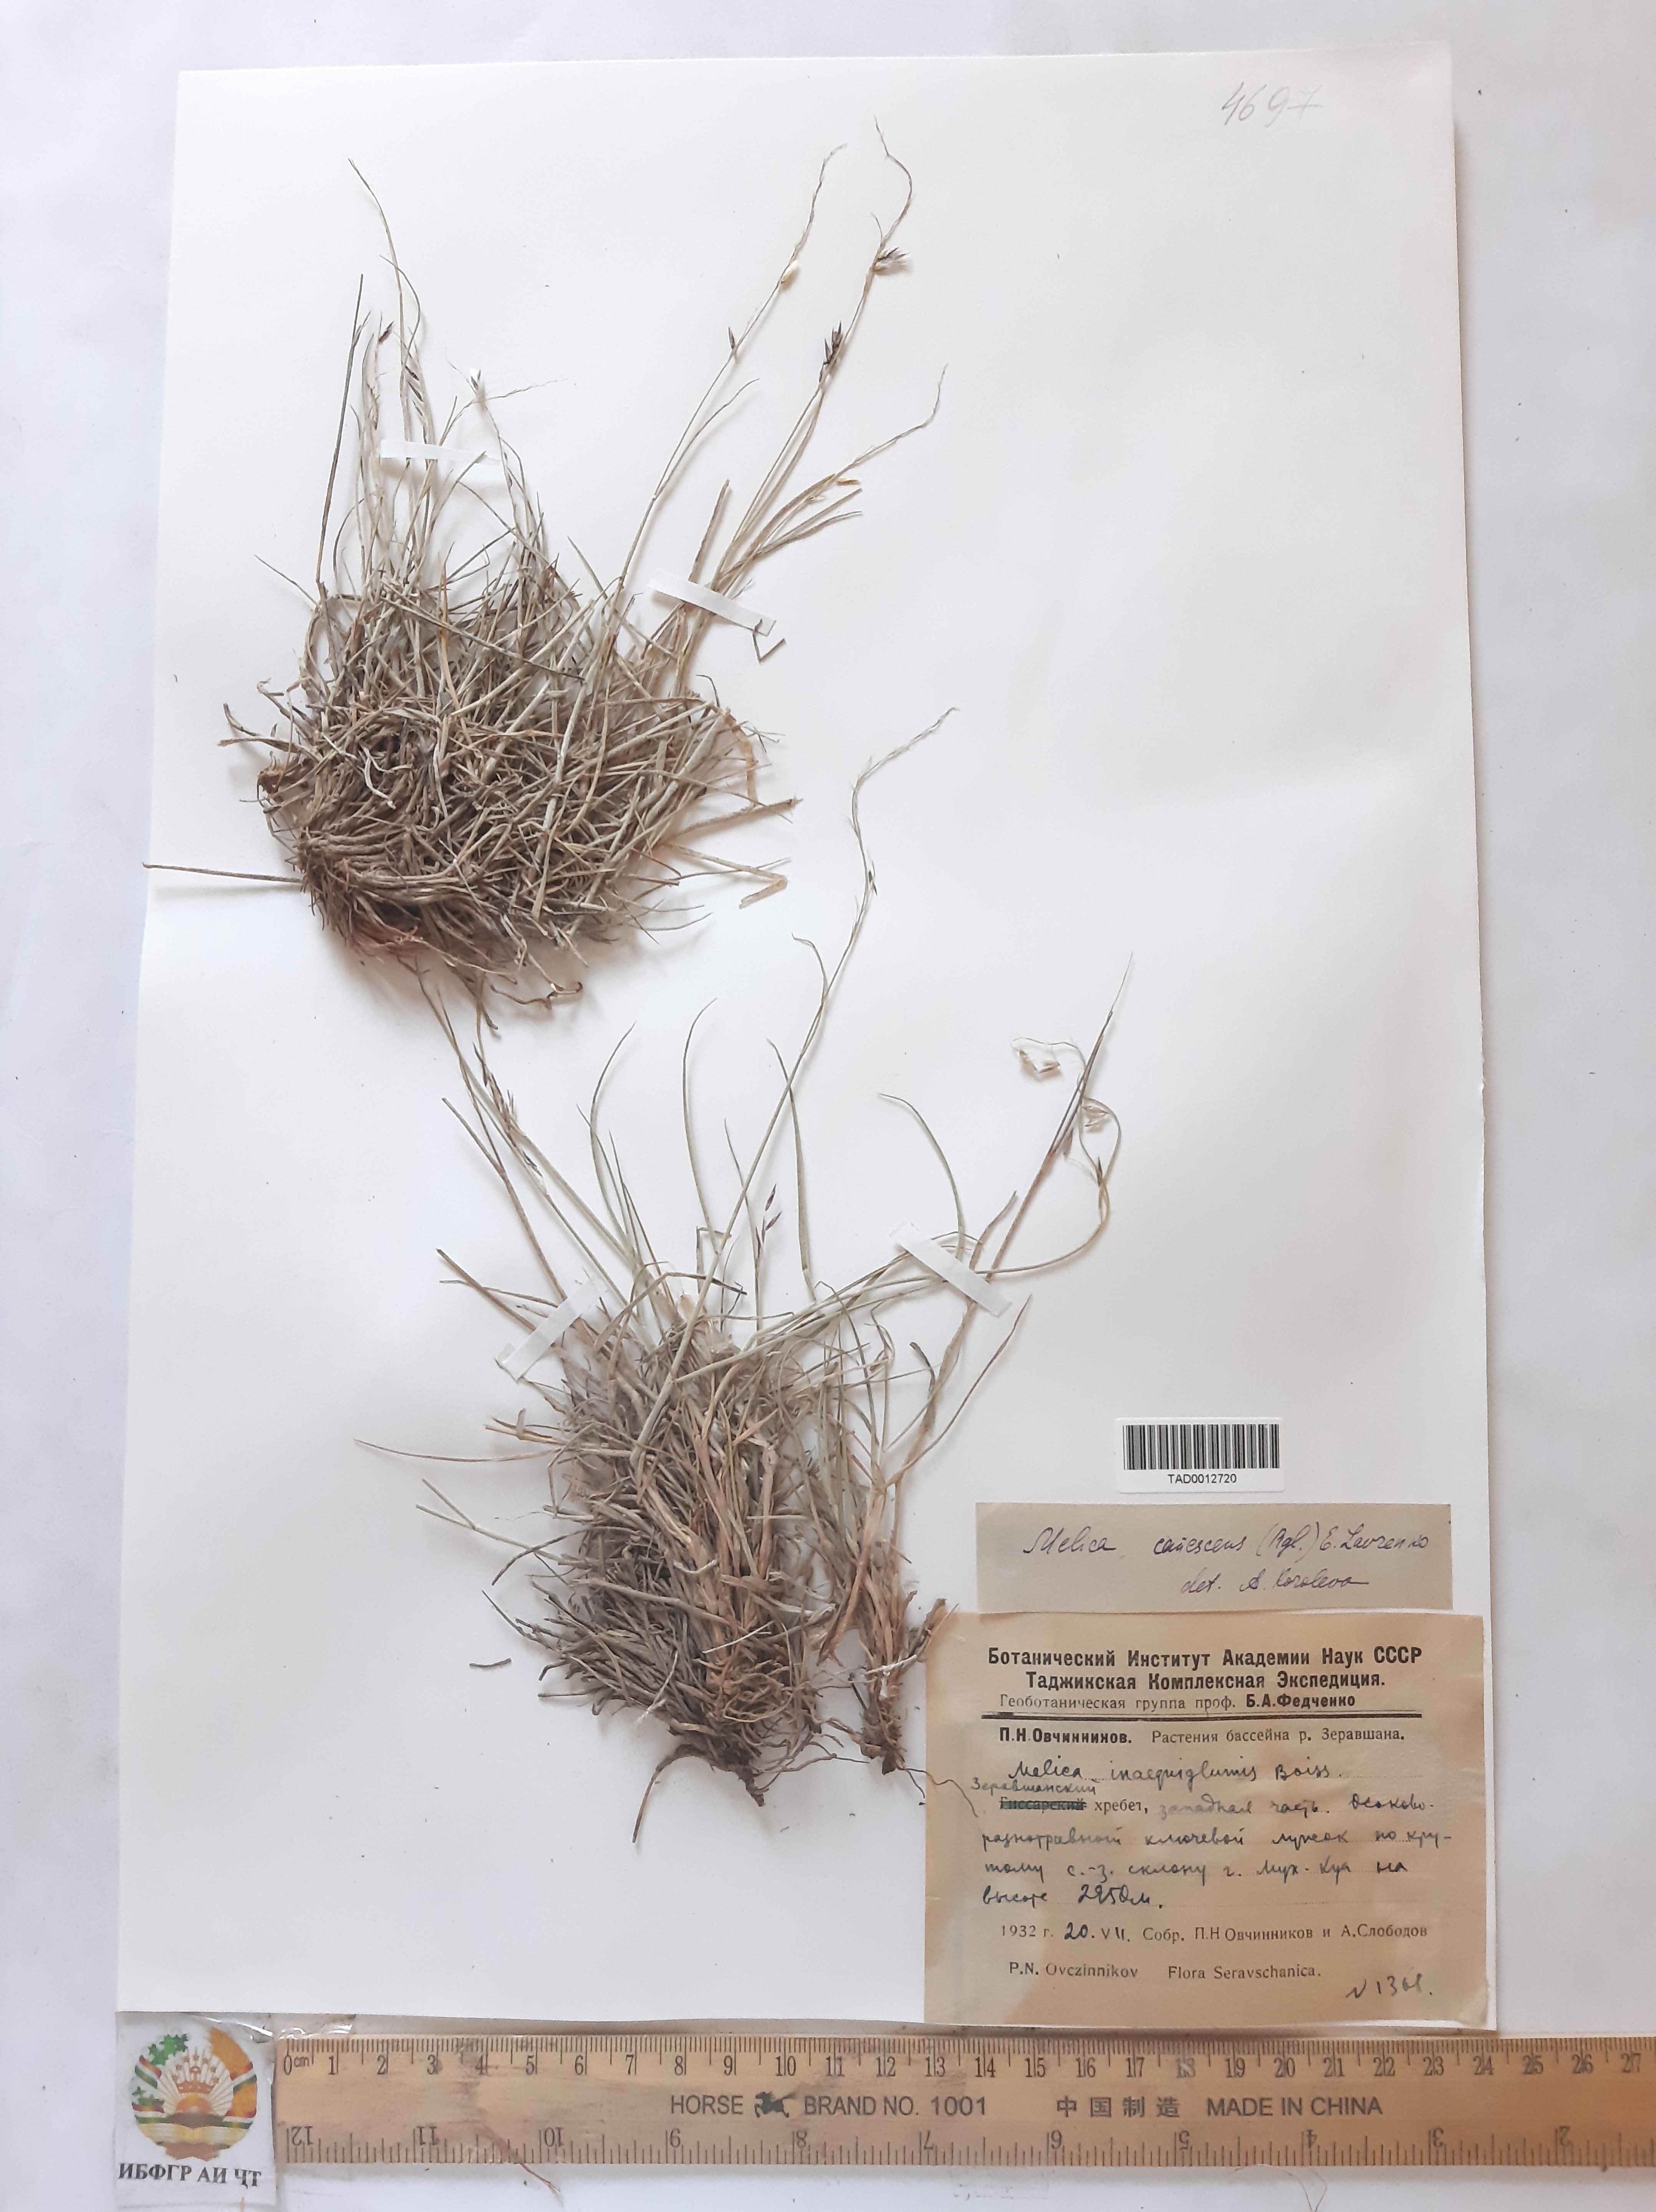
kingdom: Plantae
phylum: Tracheophyta
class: Liliopsida
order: Poales
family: Poaceae
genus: Melica
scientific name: Melica persica
